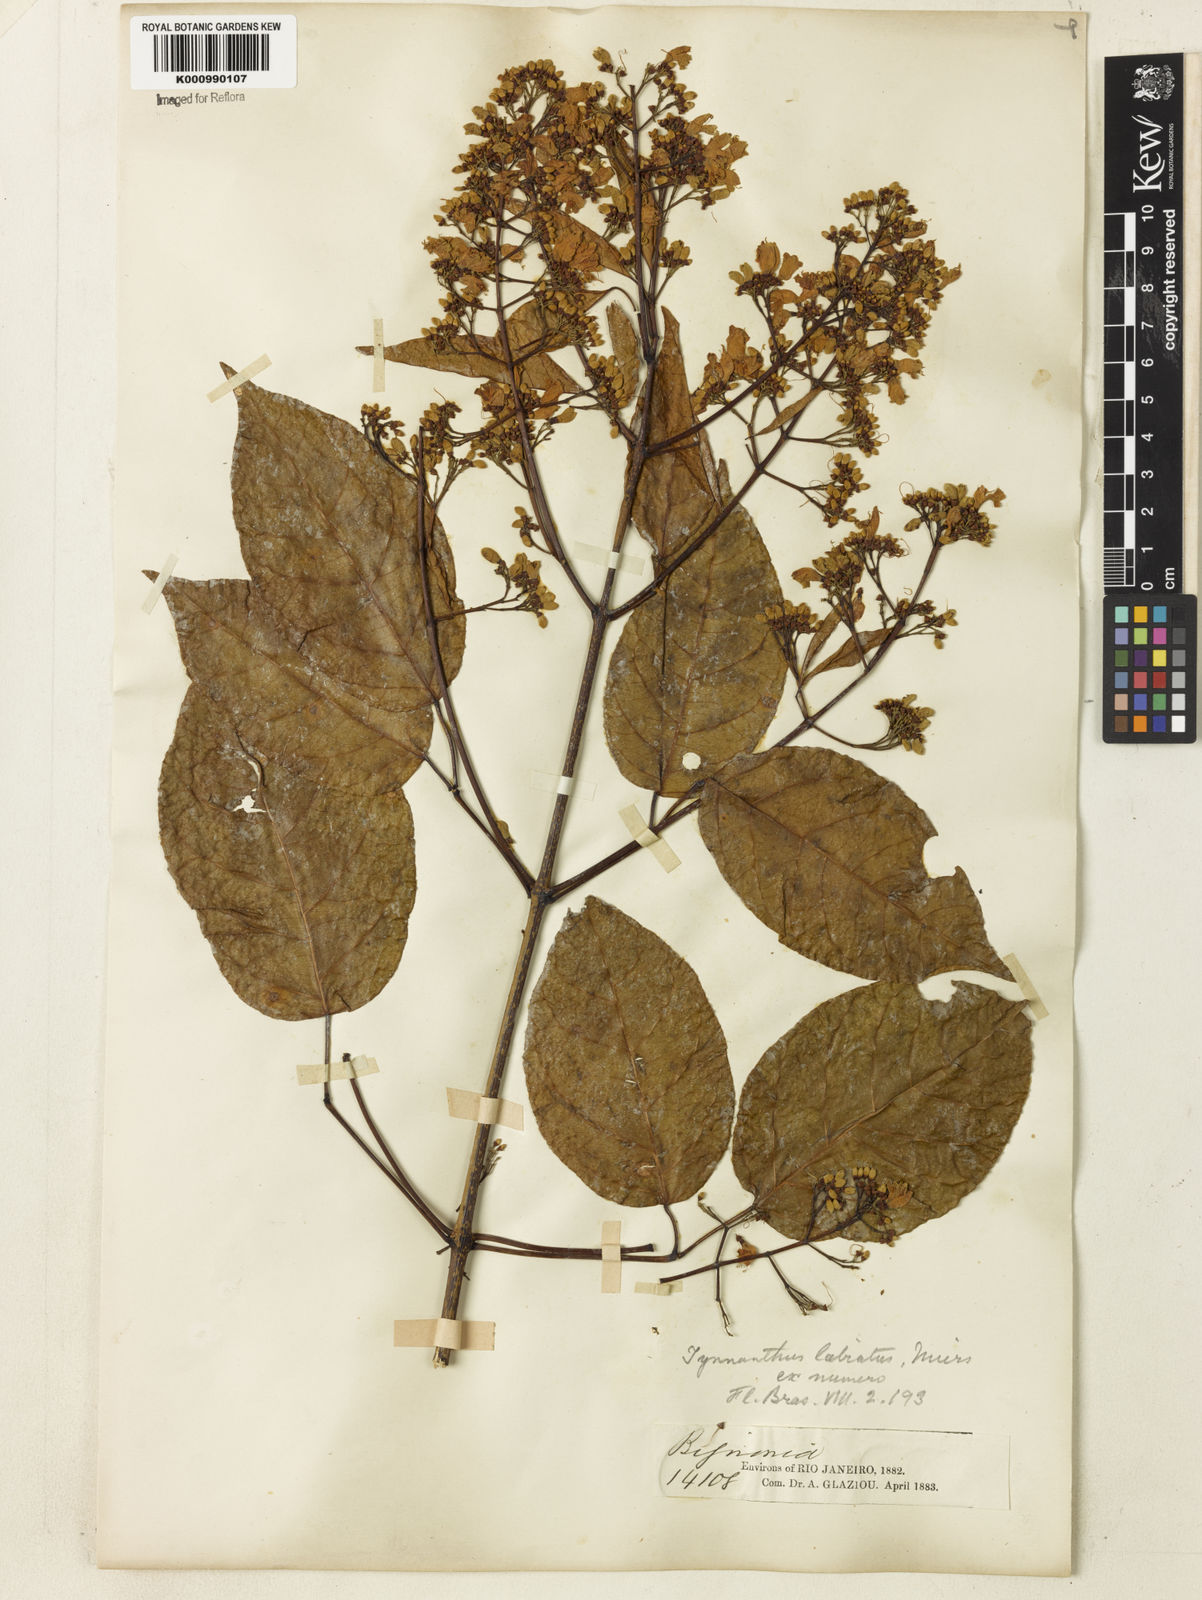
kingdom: Plantae
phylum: Tracheophyta
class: Magnoliopsida
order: Lamiales
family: Bignoniaceae
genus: Tynanthus
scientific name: Tynanthus labiatus
